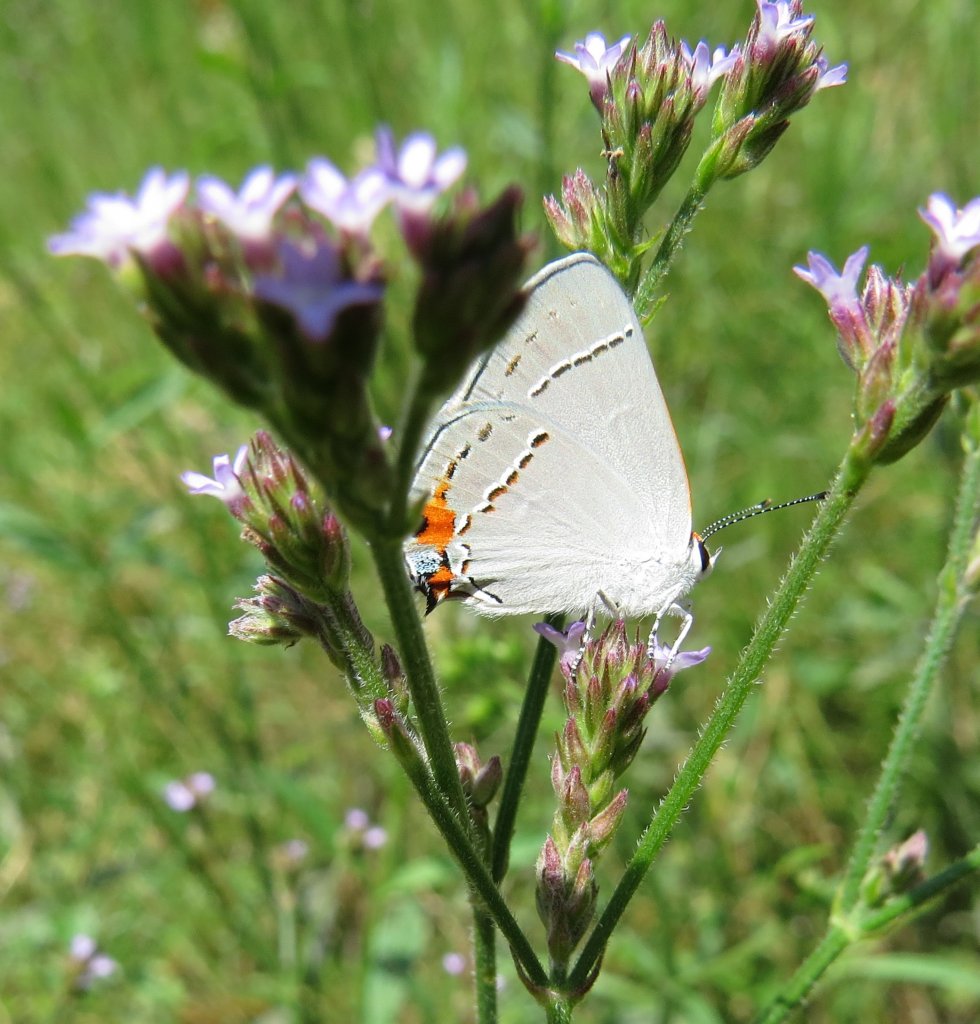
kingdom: Animalia
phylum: Arthropoda
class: Insecta
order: Lepidoptera
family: Lycaenidae
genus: Strymon
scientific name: Strymon melinus
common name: Gray Hairstreak
